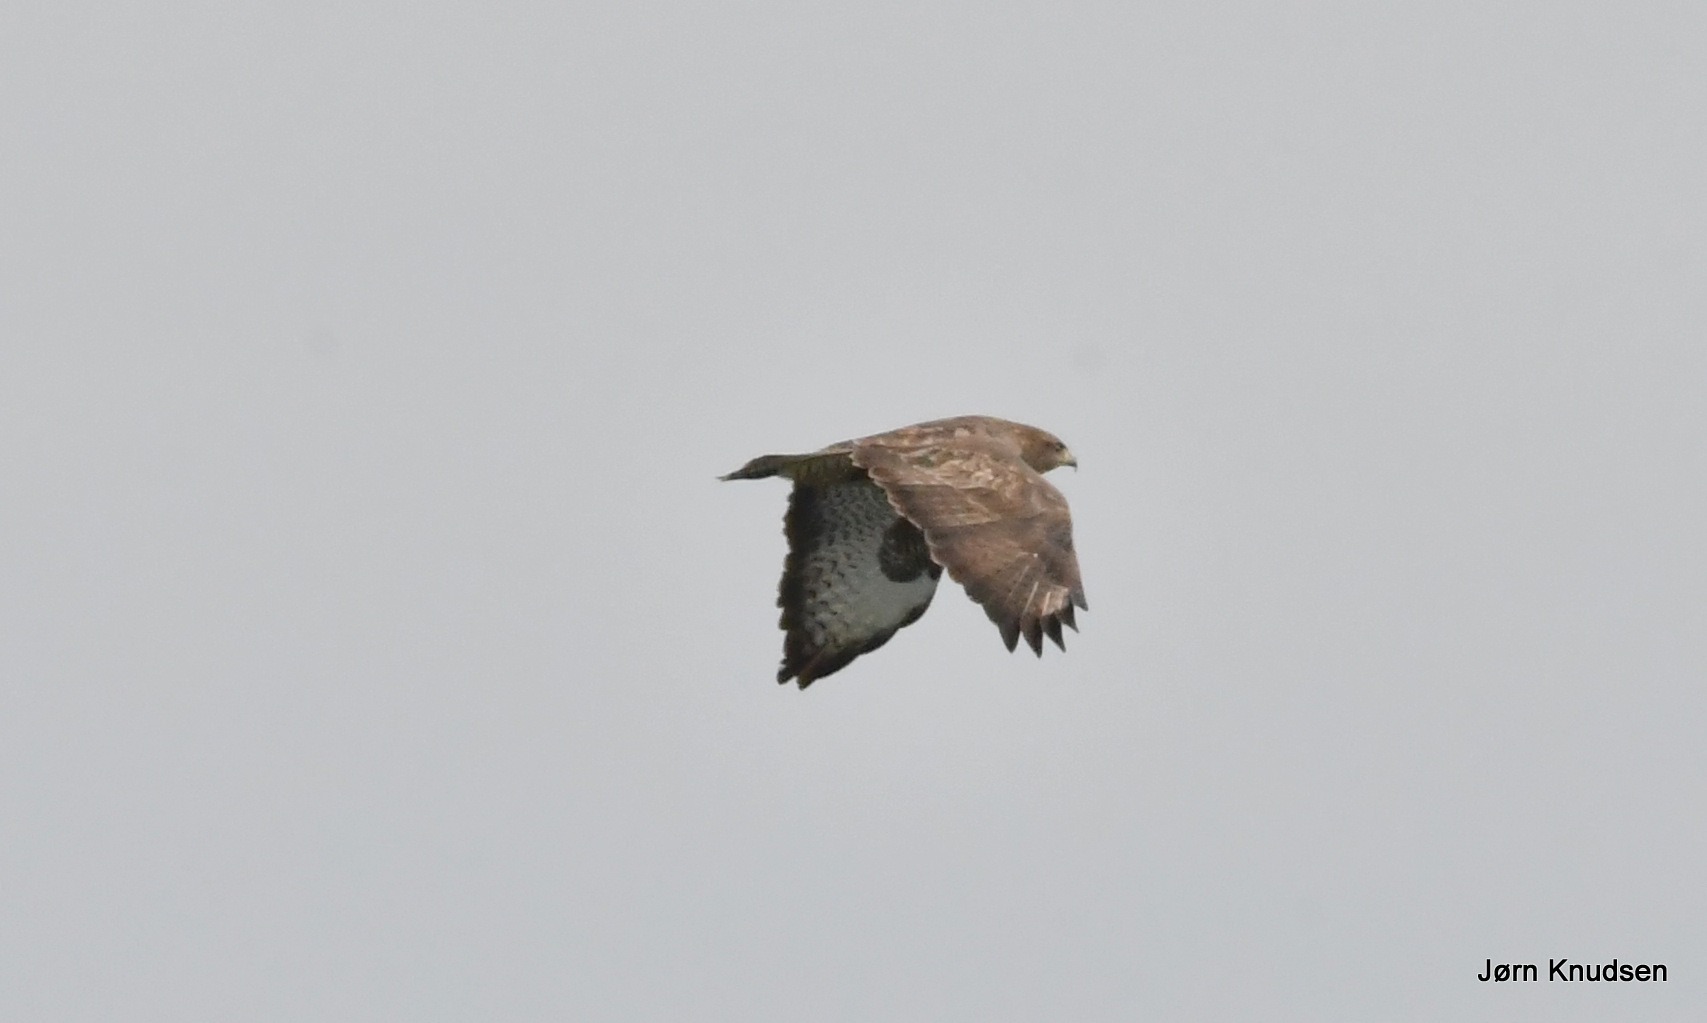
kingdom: Animalia
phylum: Chordata
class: Aves
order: Accipitriformes
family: Accipitridae
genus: Buteo
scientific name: Buteo buteo
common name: Musvåge
